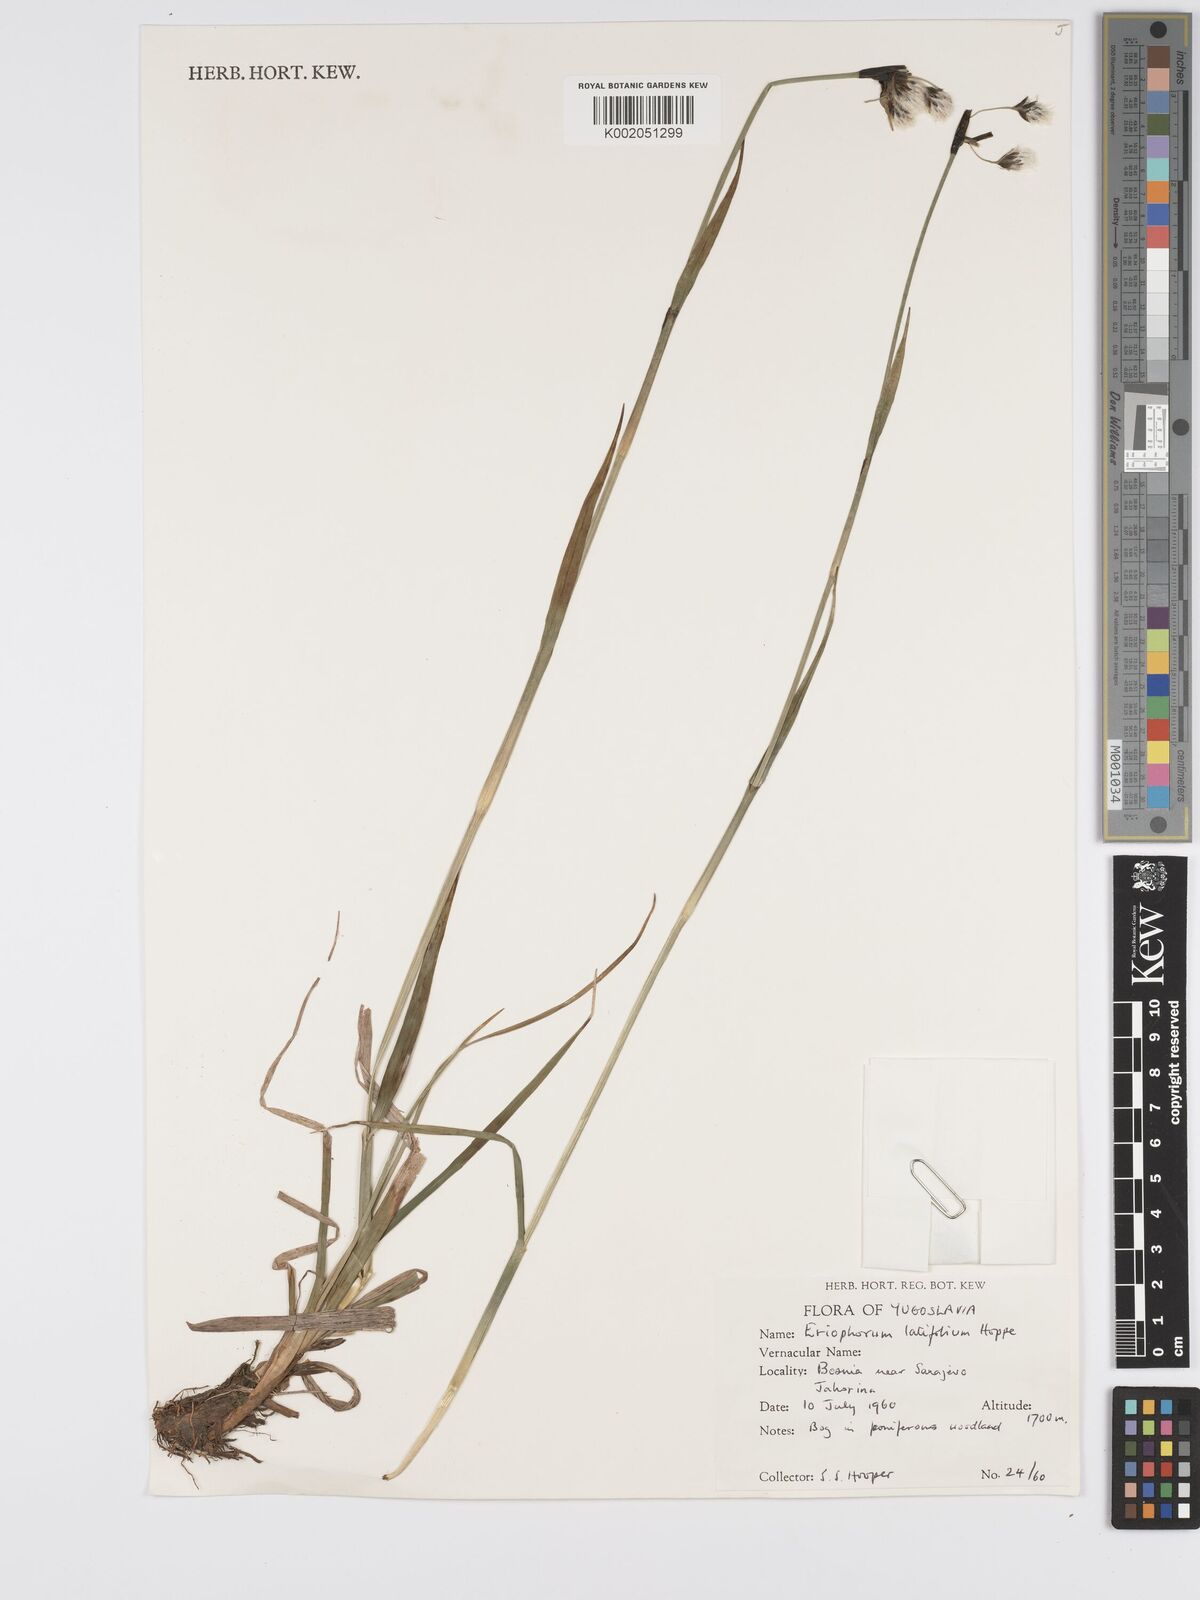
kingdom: Plantae
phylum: Tracheophyta
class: Liliopsida
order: Poales
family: Cyperaceae
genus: Eriophorum
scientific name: Eriophorum latifolium
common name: Broad-leaved cottongrass
